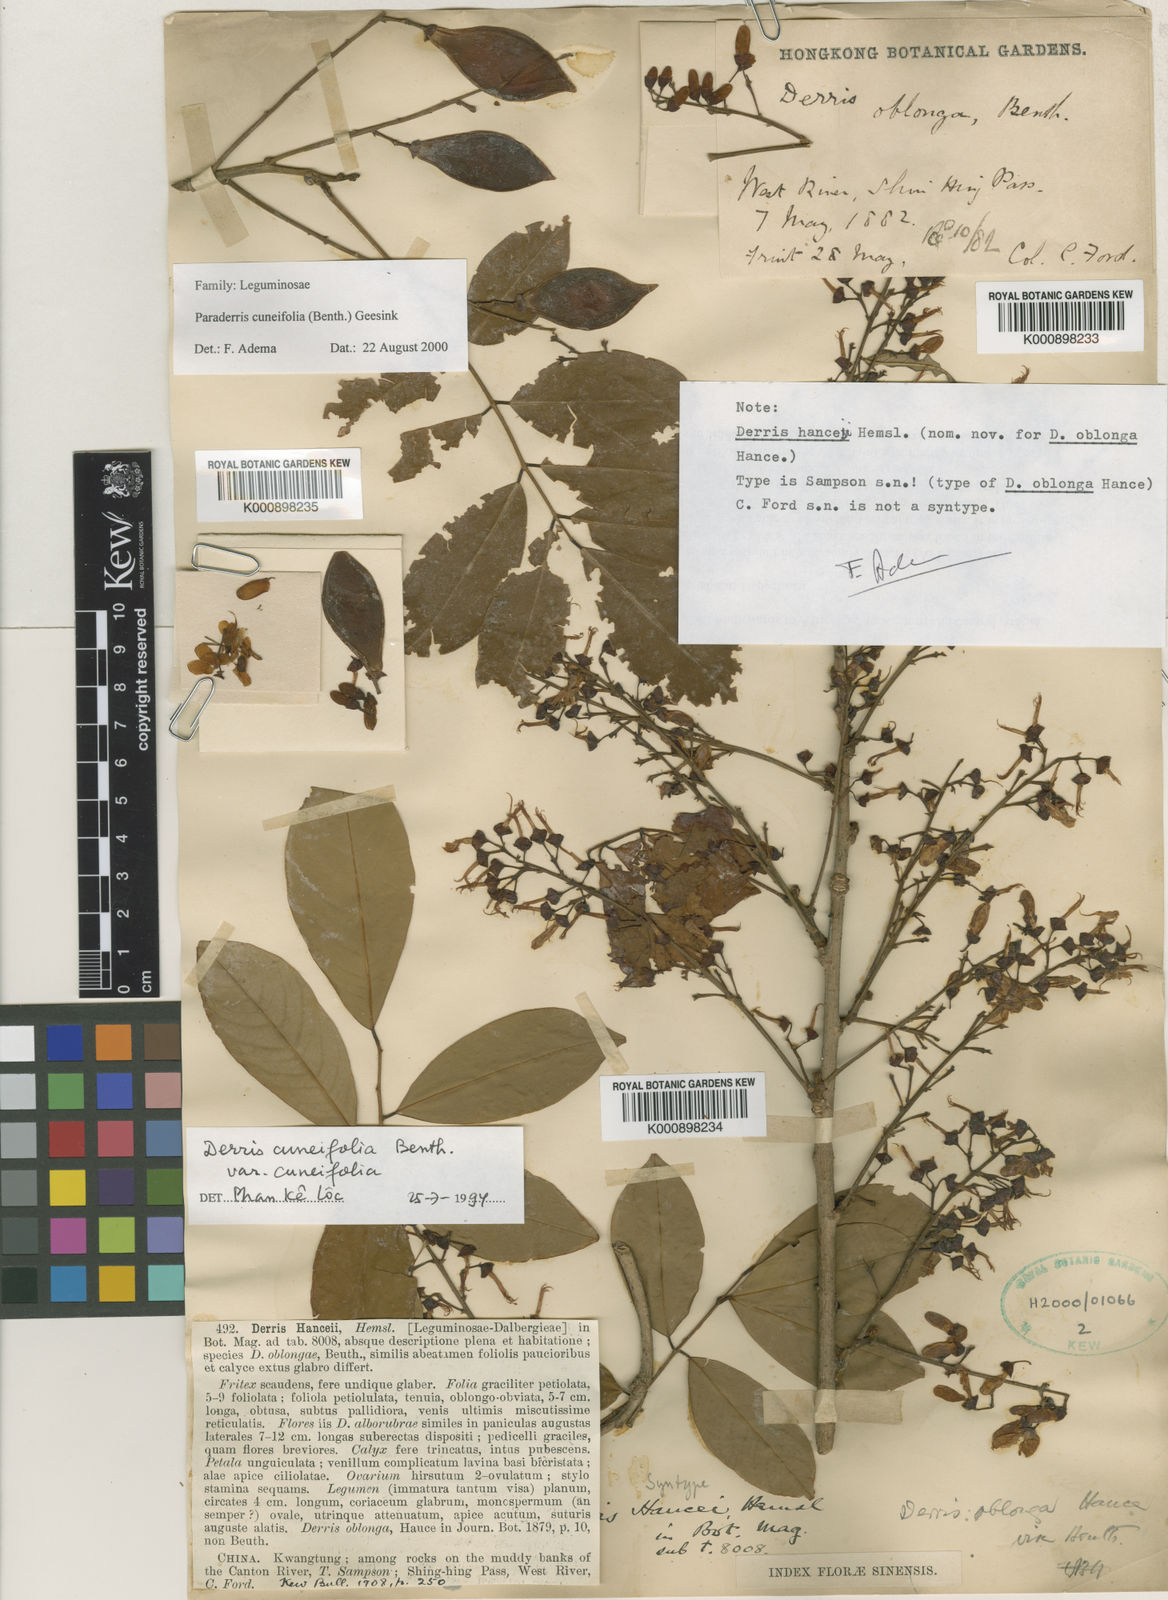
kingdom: Plantae
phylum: Tracheophyta
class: Magnoliopsida
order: Fabales
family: Fabaceae
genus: Derris
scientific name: Derris cuneifolia
